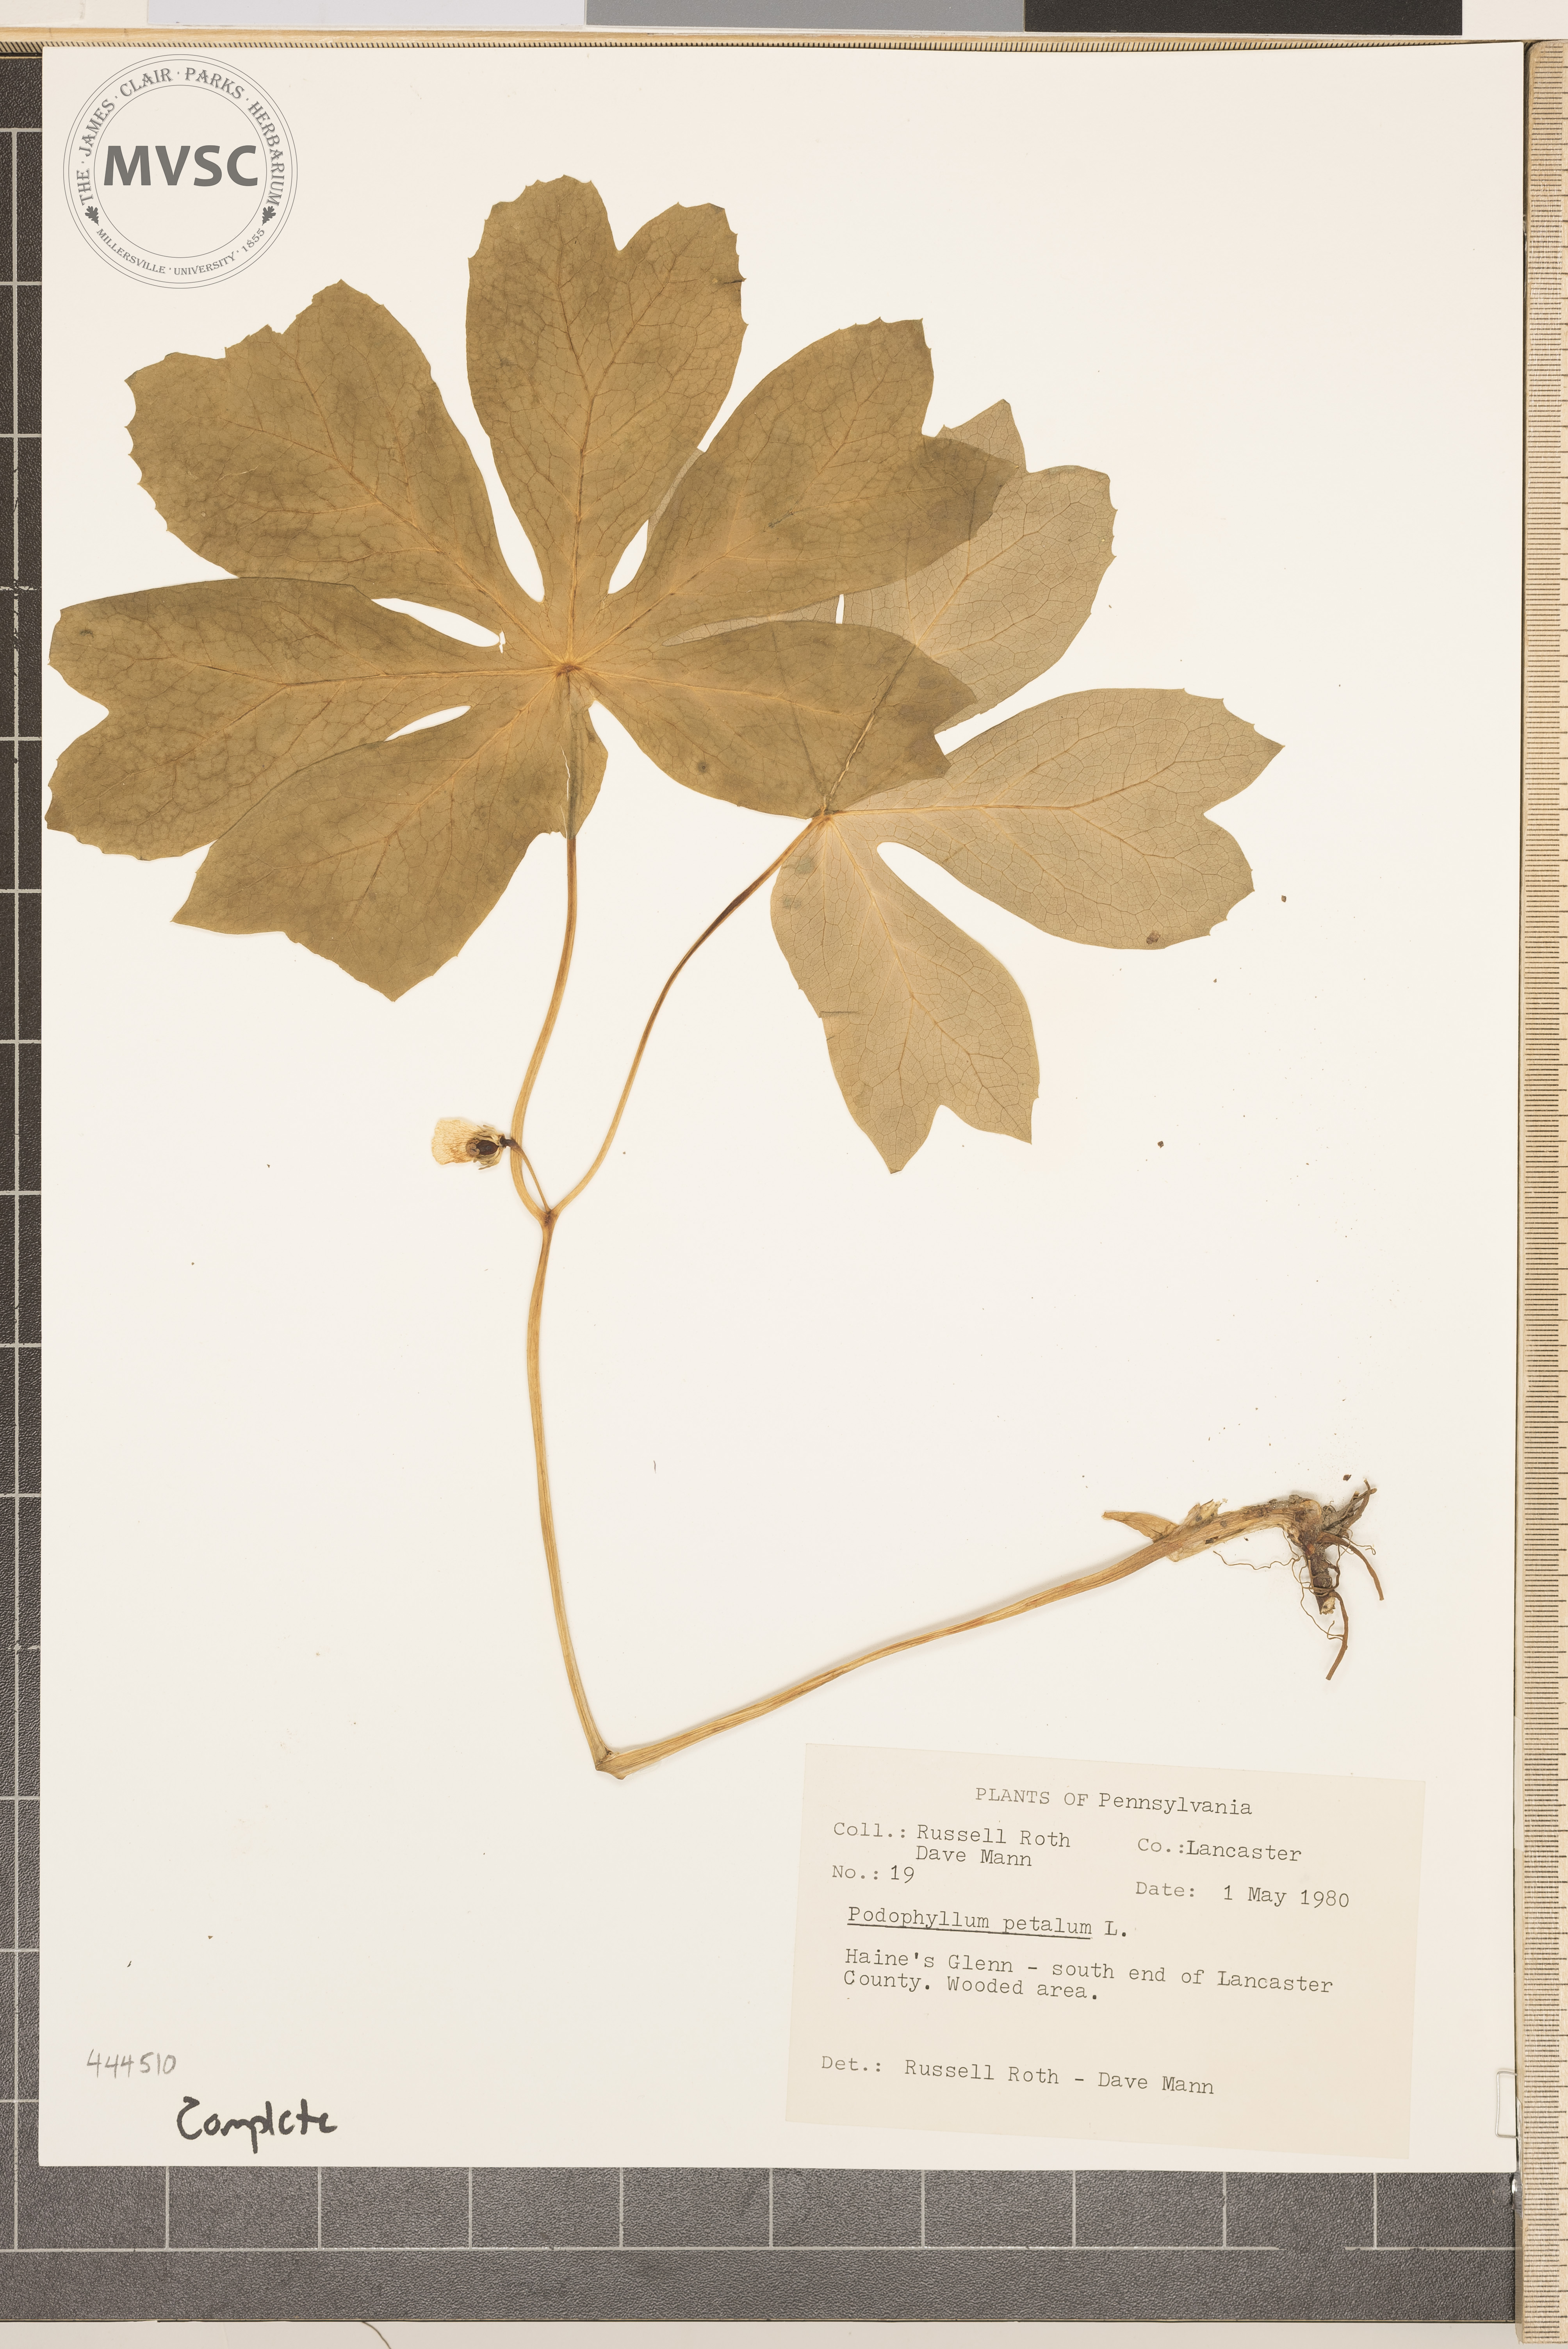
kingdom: Plantae
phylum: Tracheophyta
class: Magnoliopsida
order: Ranunculales
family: Berberidaceae
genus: Podophyllum
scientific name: Podophyllum peltatum
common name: Wild mandrake
